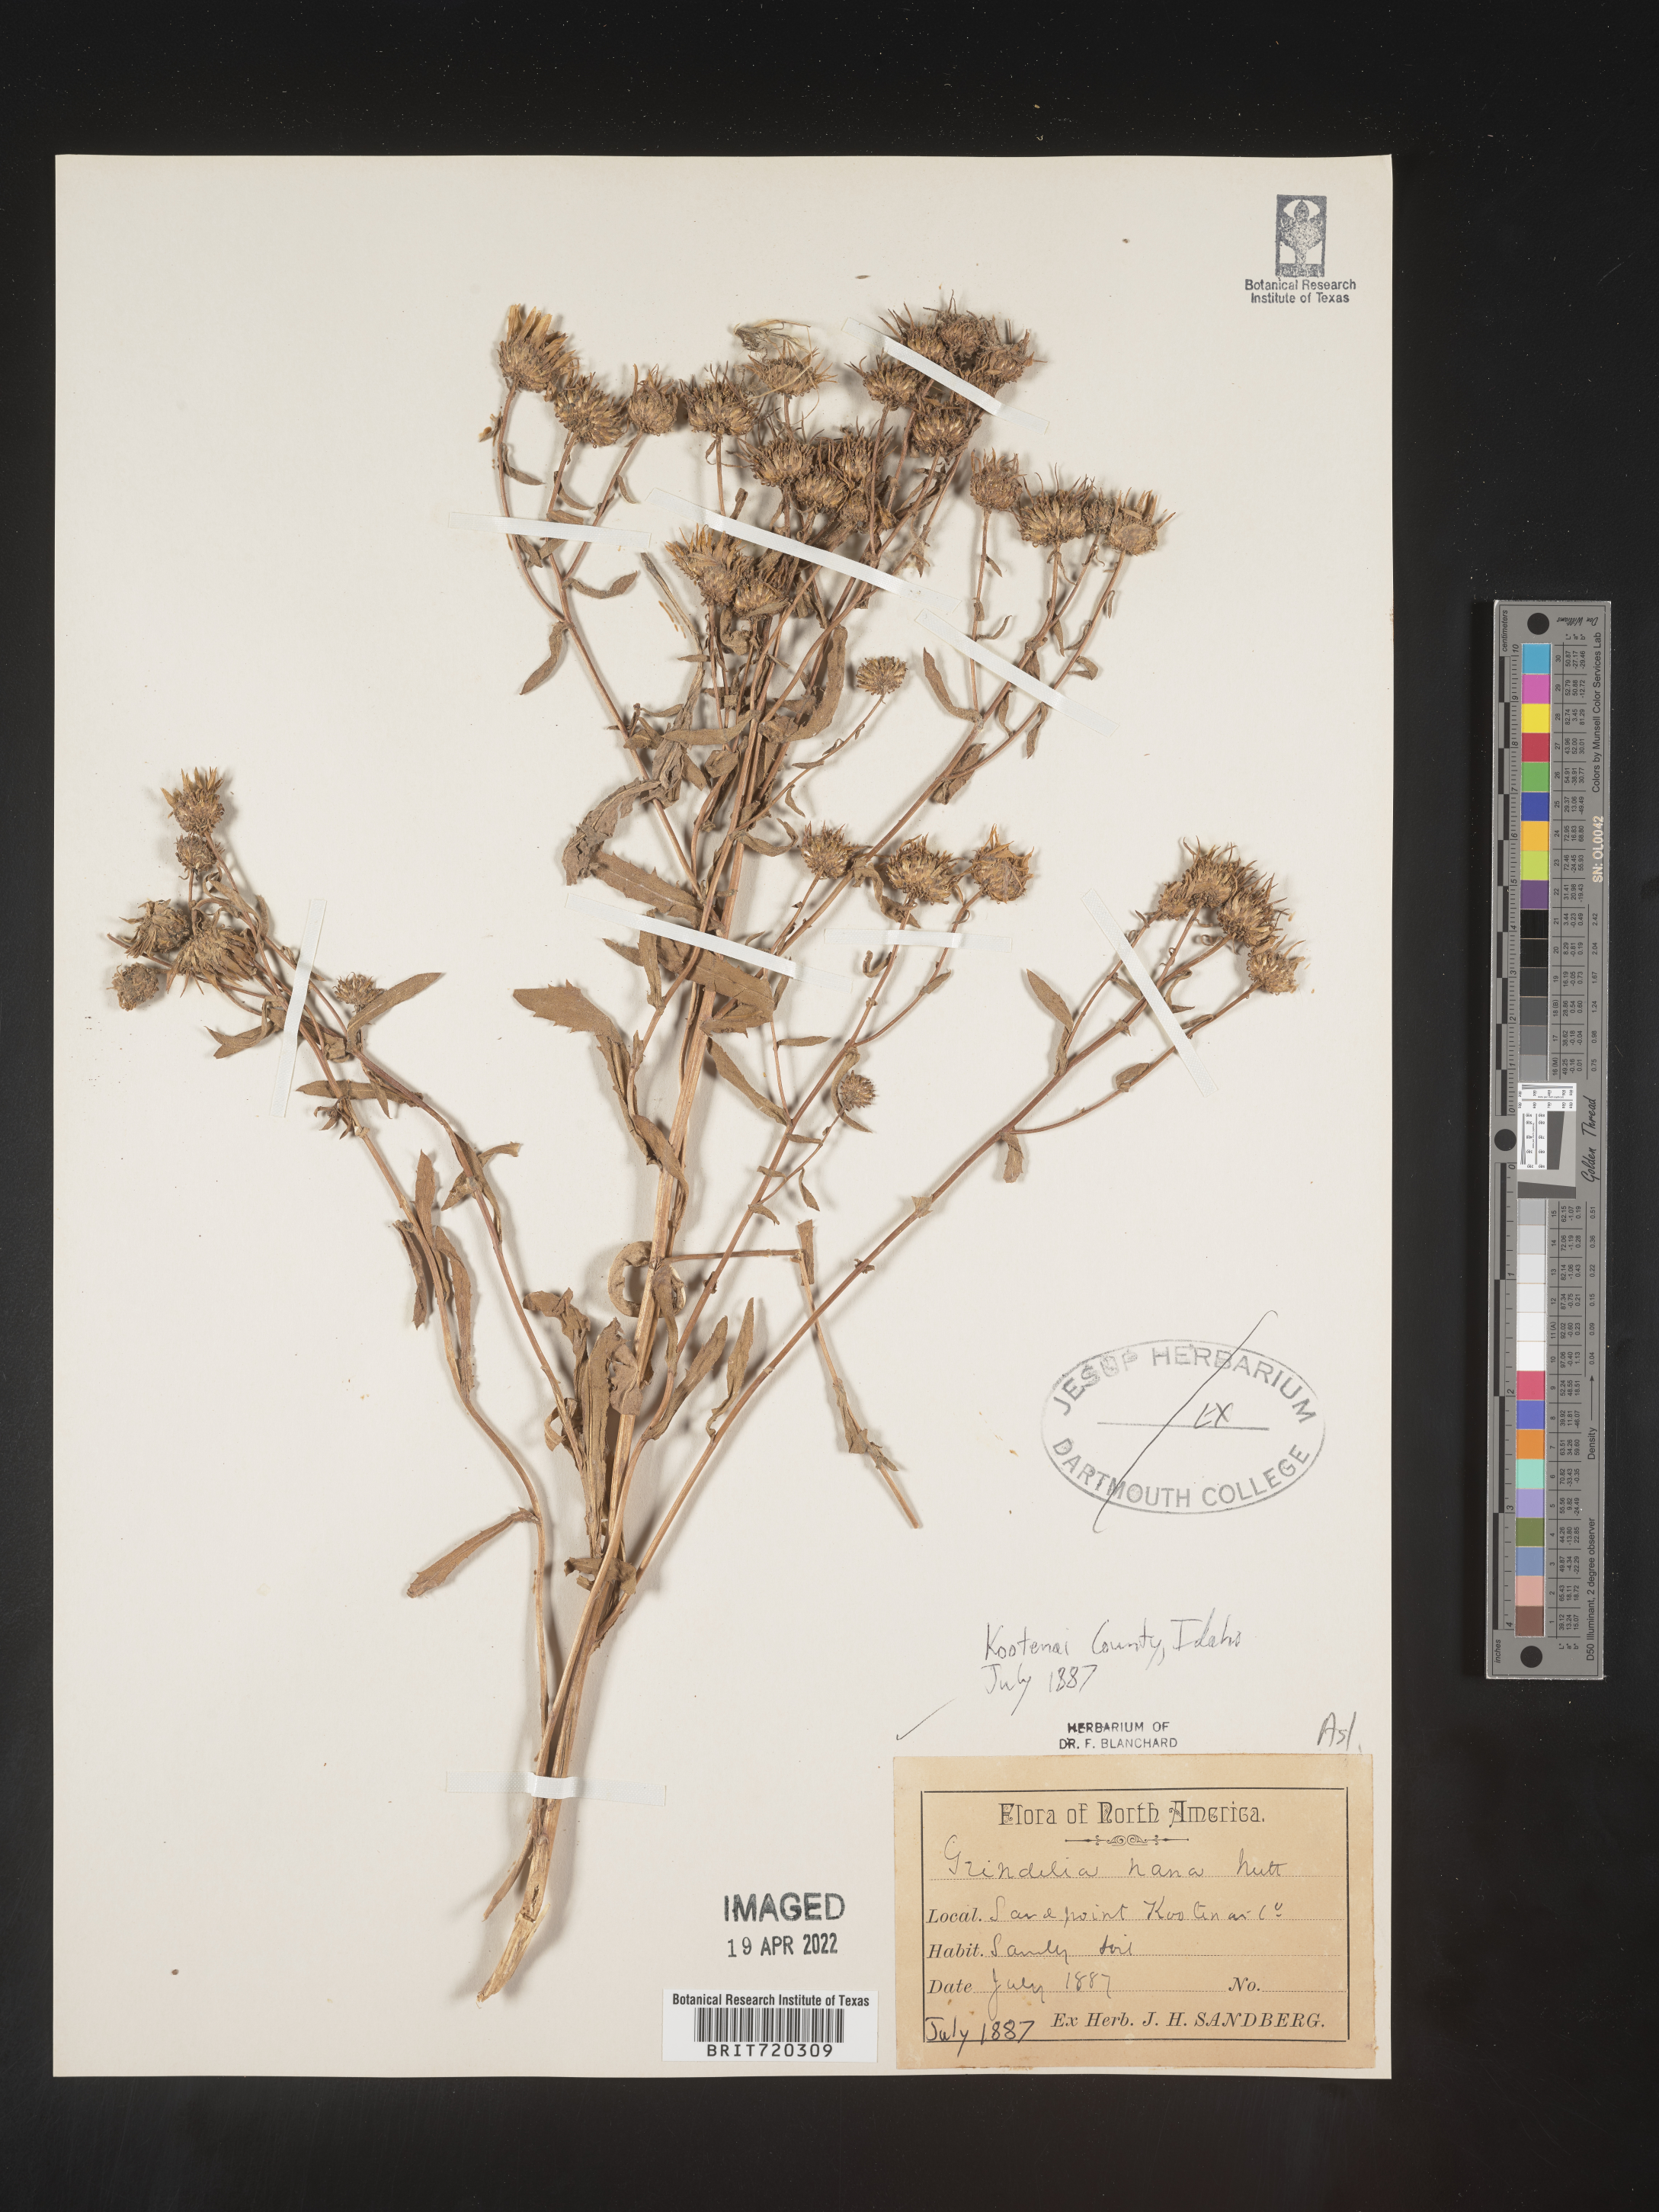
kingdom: Plantae
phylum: Tracheophyta
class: Magnoliopsida
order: Asterales
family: Asteraceae
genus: Grindelia
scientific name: Grindelia hirsutula
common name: Hairy gumweed
